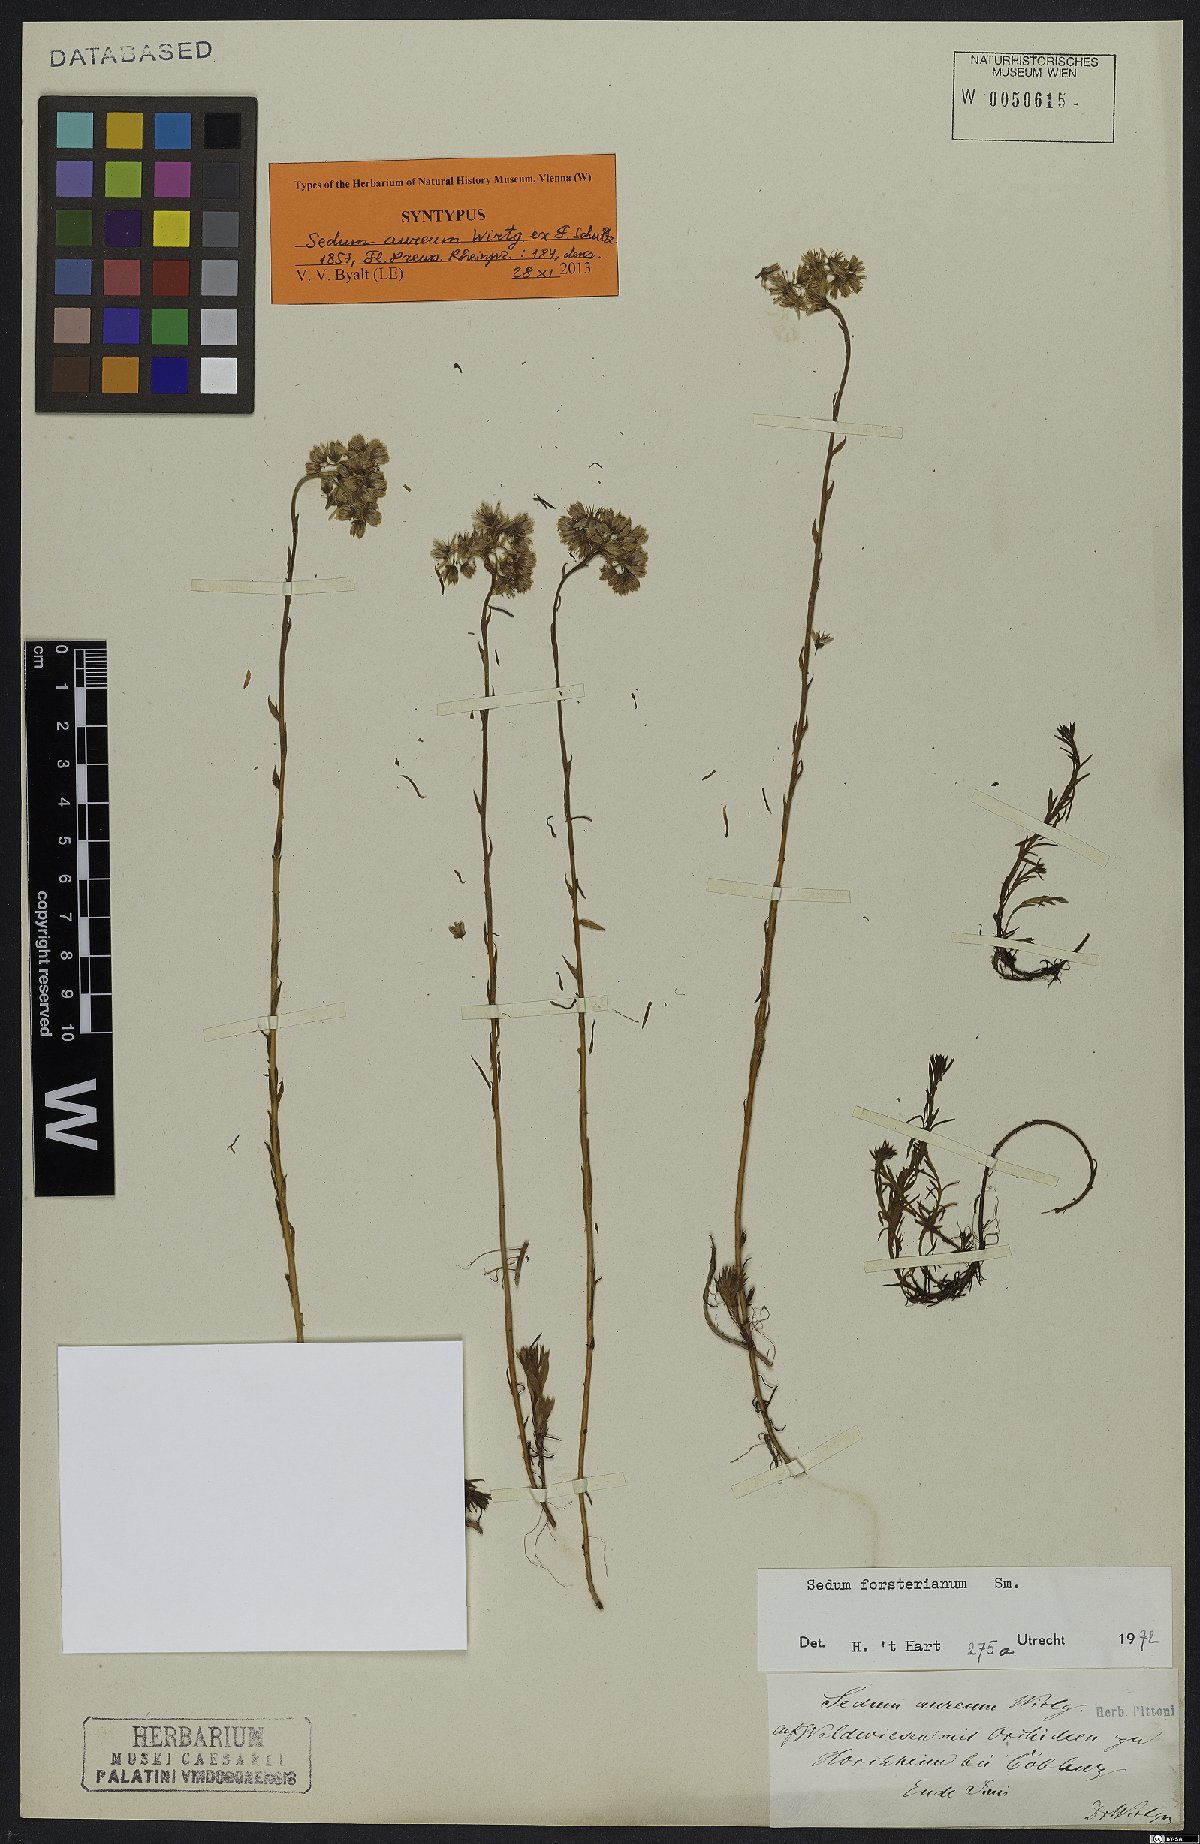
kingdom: Plantae
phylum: Tracheophyta
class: Magnoliopsida
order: Saxifragales
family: Crassulaceae
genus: Petrosedum
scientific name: Petrosedum forsterianum
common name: Forster's stonecrop
